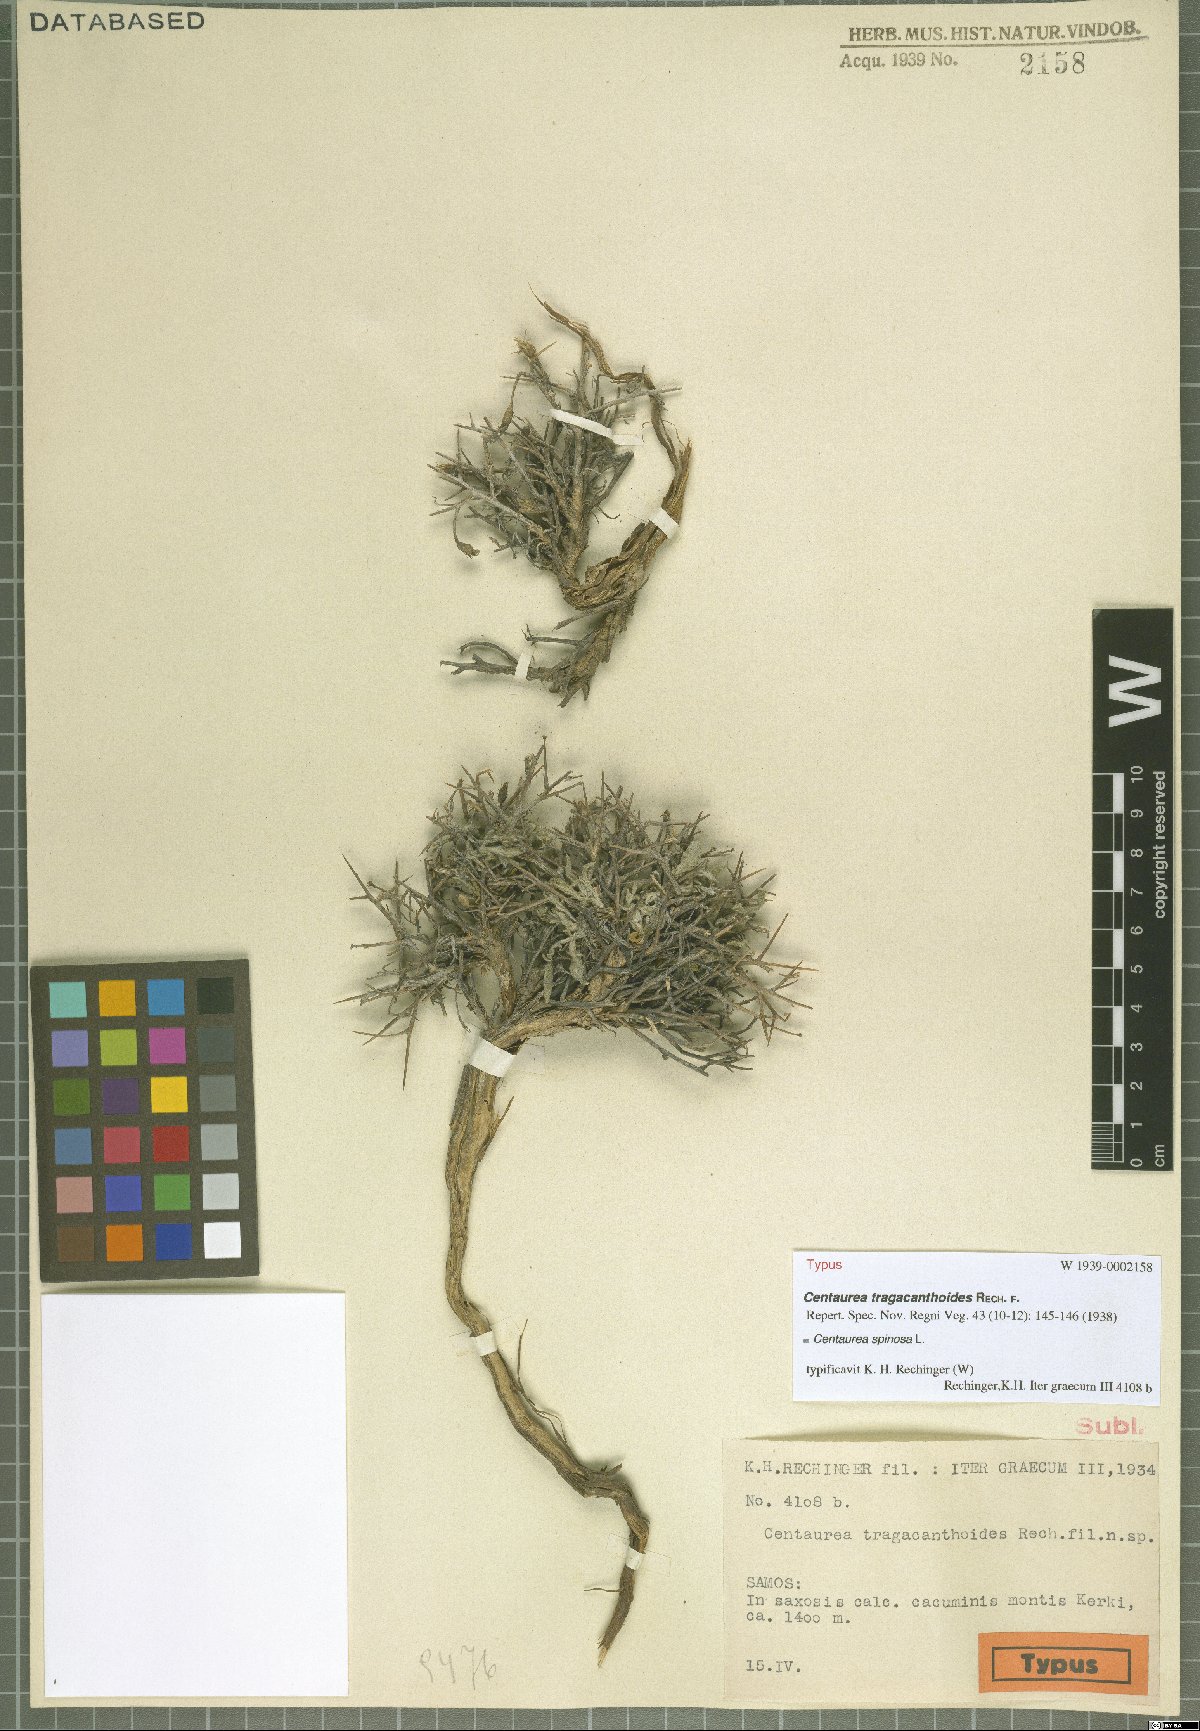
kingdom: Plantae
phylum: Tracheophyta
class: Magnoliopsida
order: Asterales
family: Asteraceae
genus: Centaurea
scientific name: Centaurea spinosa
